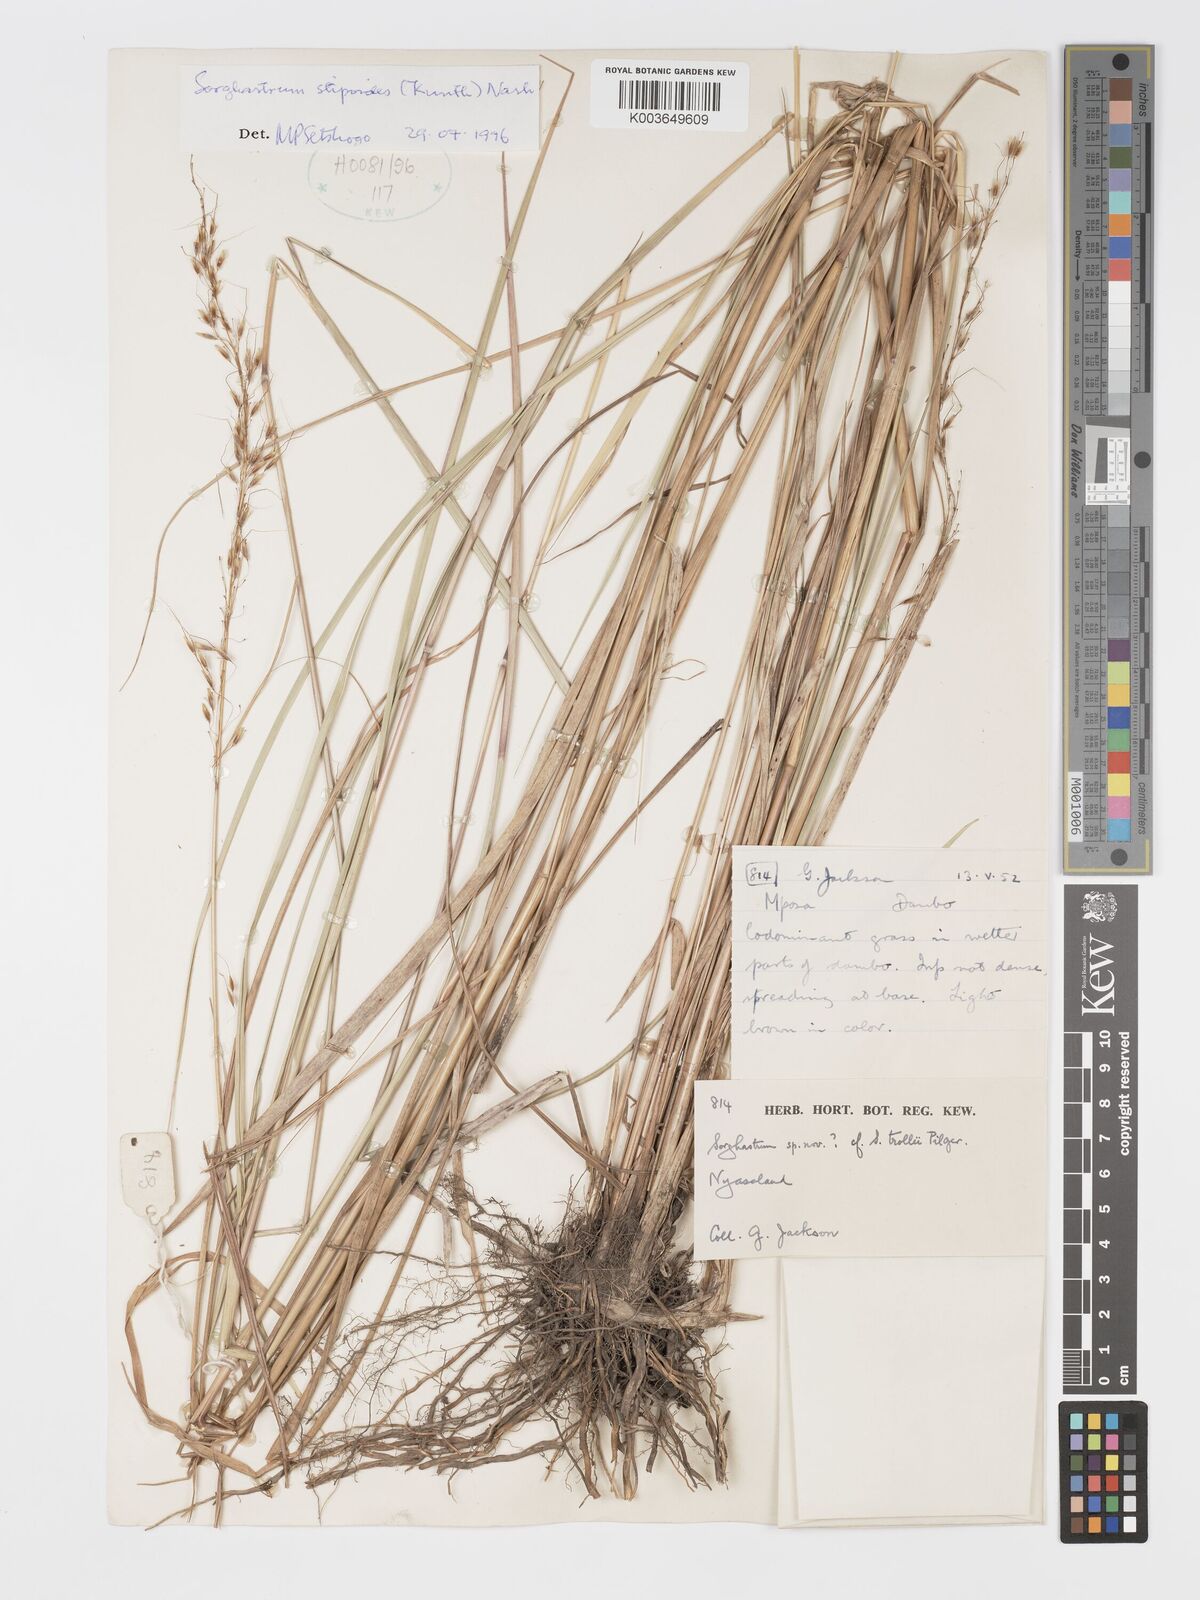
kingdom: Plantae
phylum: Tracheophyta
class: Liliopsida
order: Poales
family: Poaceae
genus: Sorghastrum
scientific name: Sorghastrum stipoides
